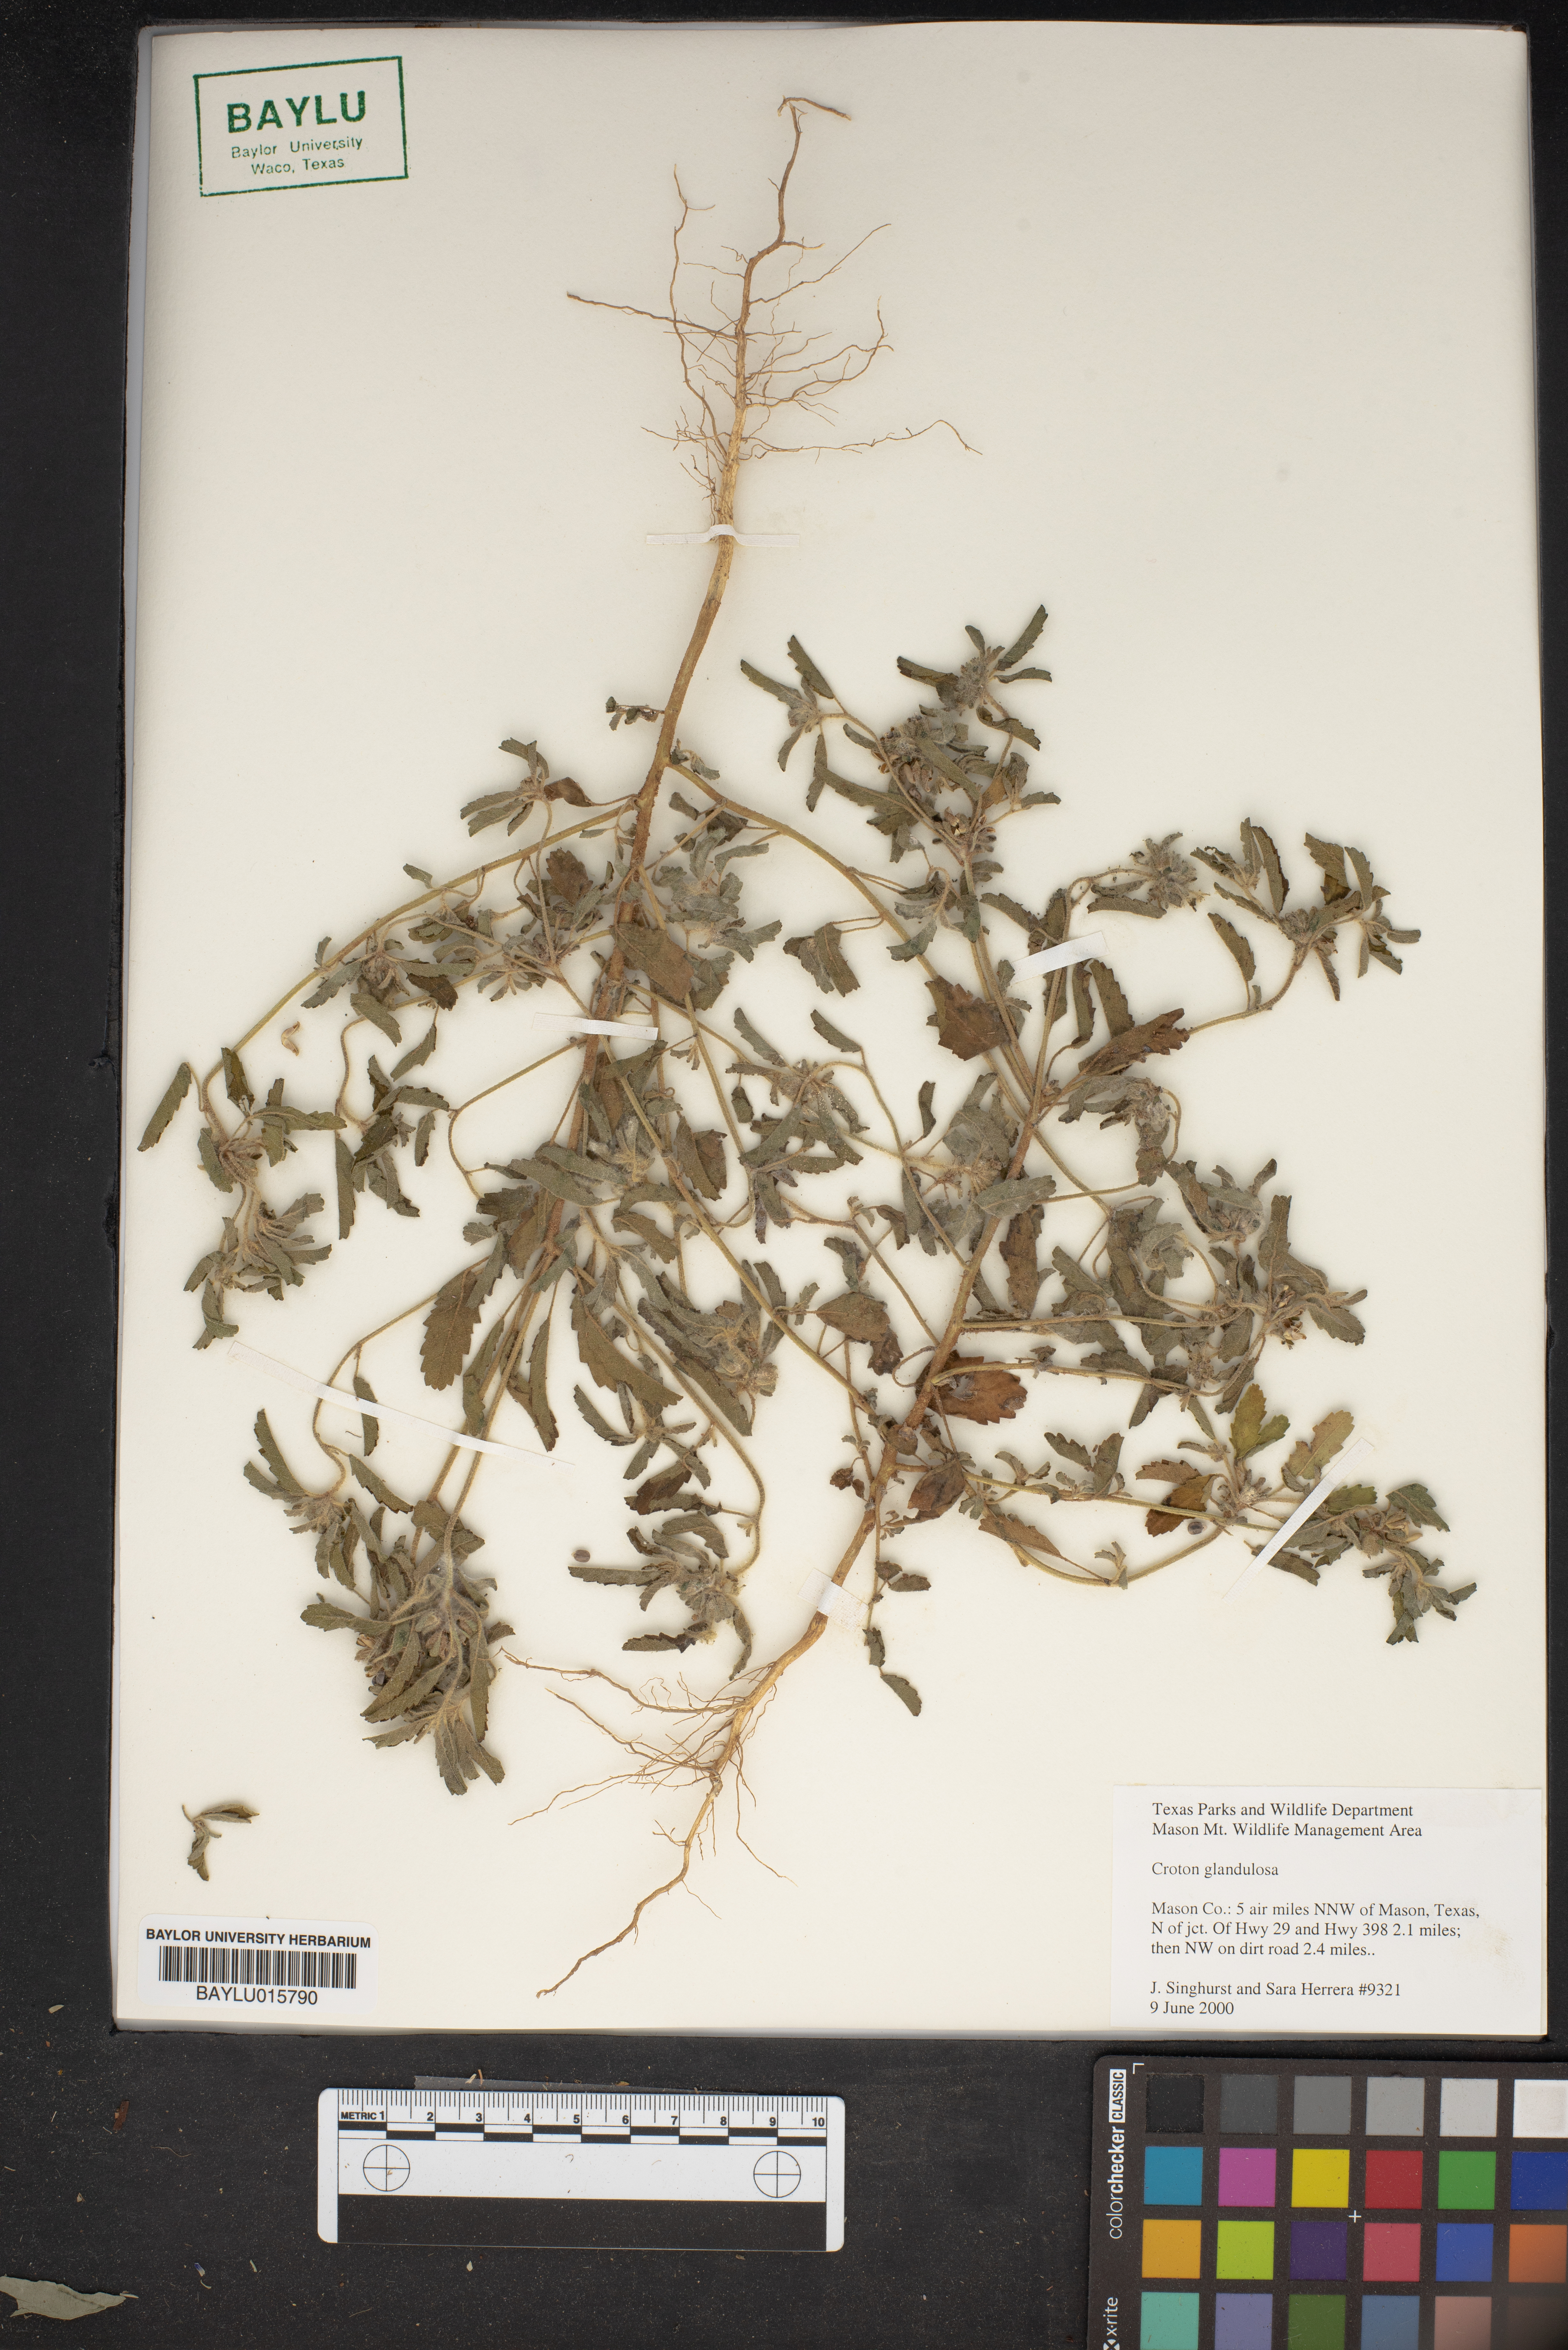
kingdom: Plantae
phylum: Tracheophyta
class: Magnoliopsida
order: Malpighiales
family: Euphorbiaceae
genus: Croton
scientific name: Croton glandulosus
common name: Tropic croton
